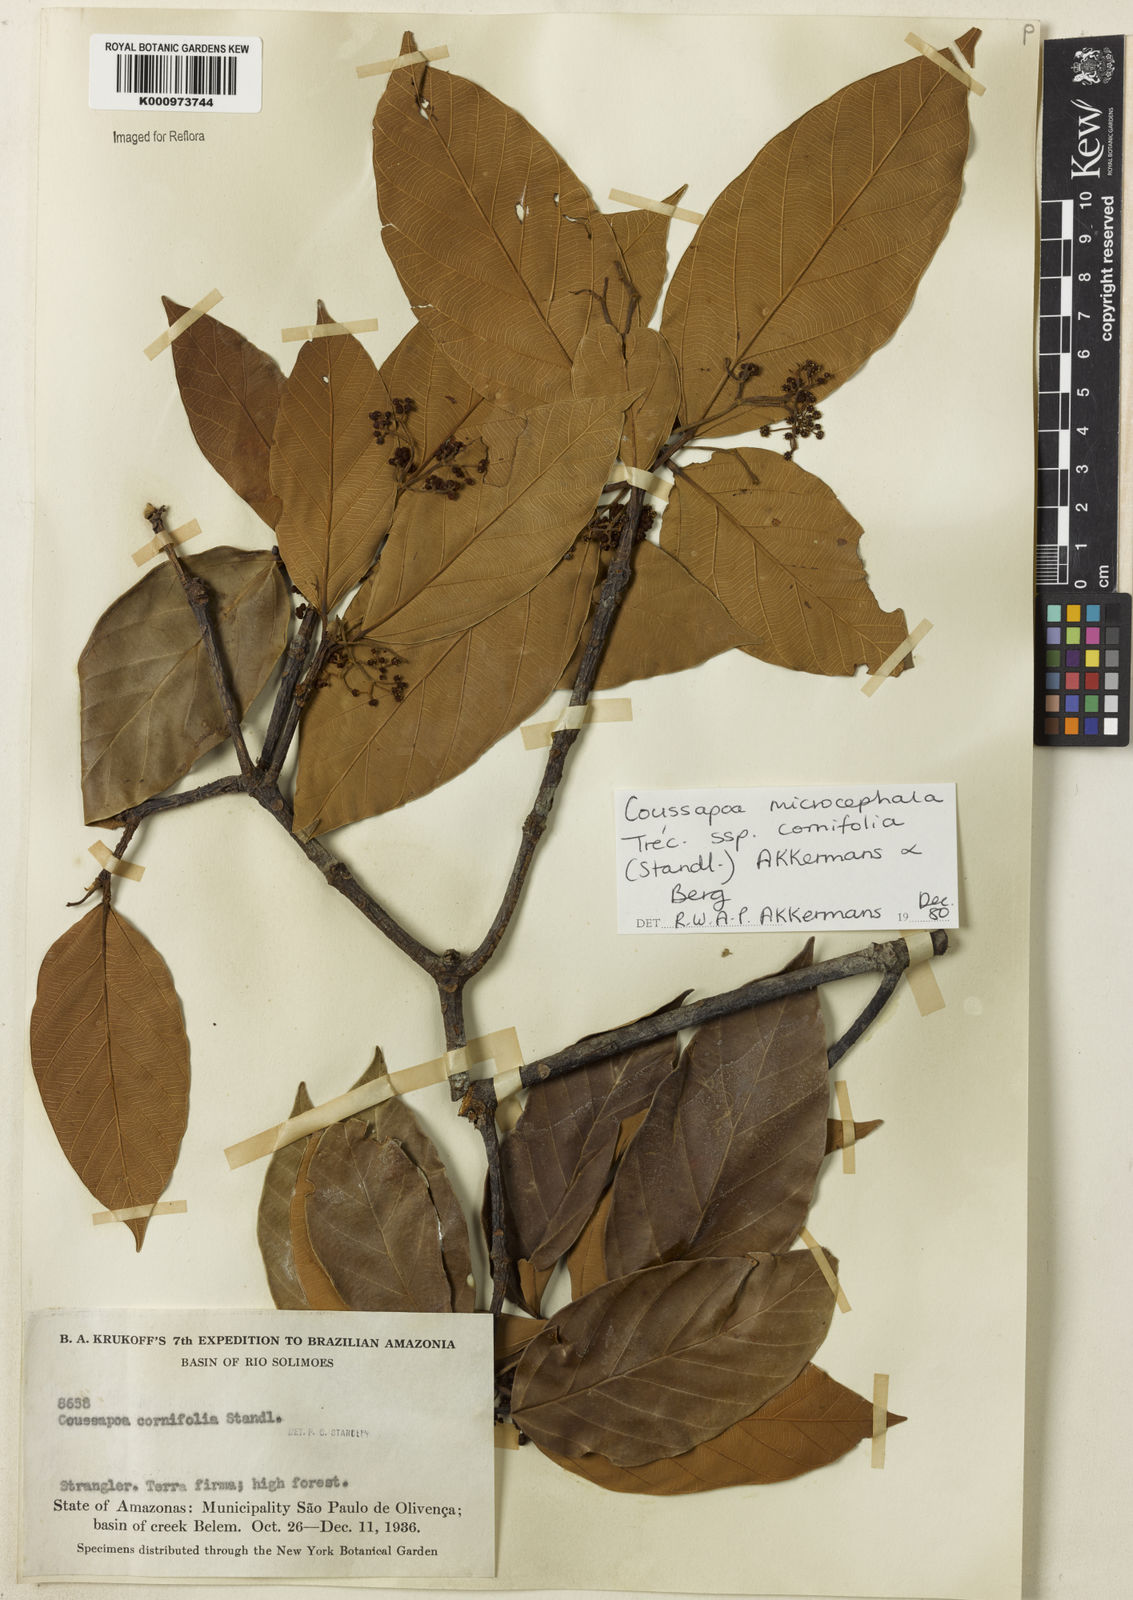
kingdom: Plantae
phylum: Tracheophyta
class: Magnoliopsida
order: Rosales
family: Urticaceae
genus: Coussapoa
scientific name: Coussapoa
